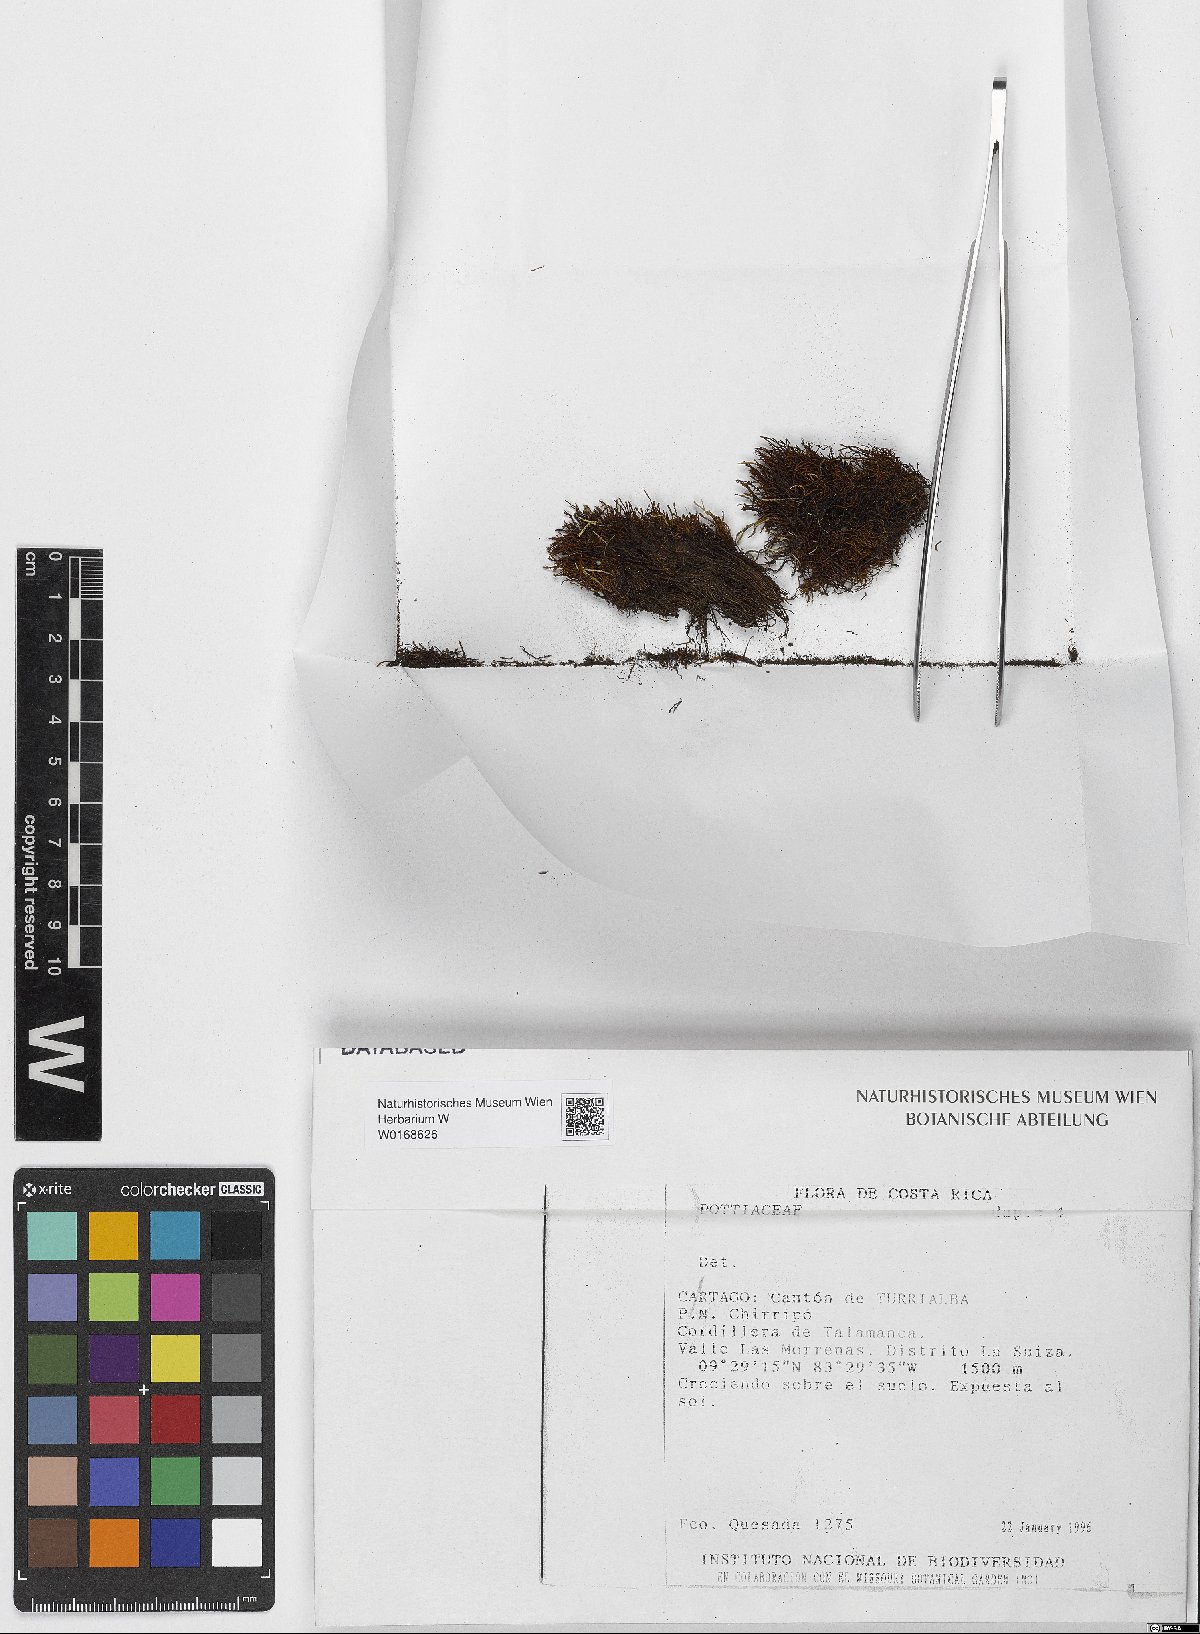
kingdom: Plantae
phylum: Bryophyta
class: Bryopsida
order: Pottiales
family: Pottiaceae
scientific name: Pottiaceae
